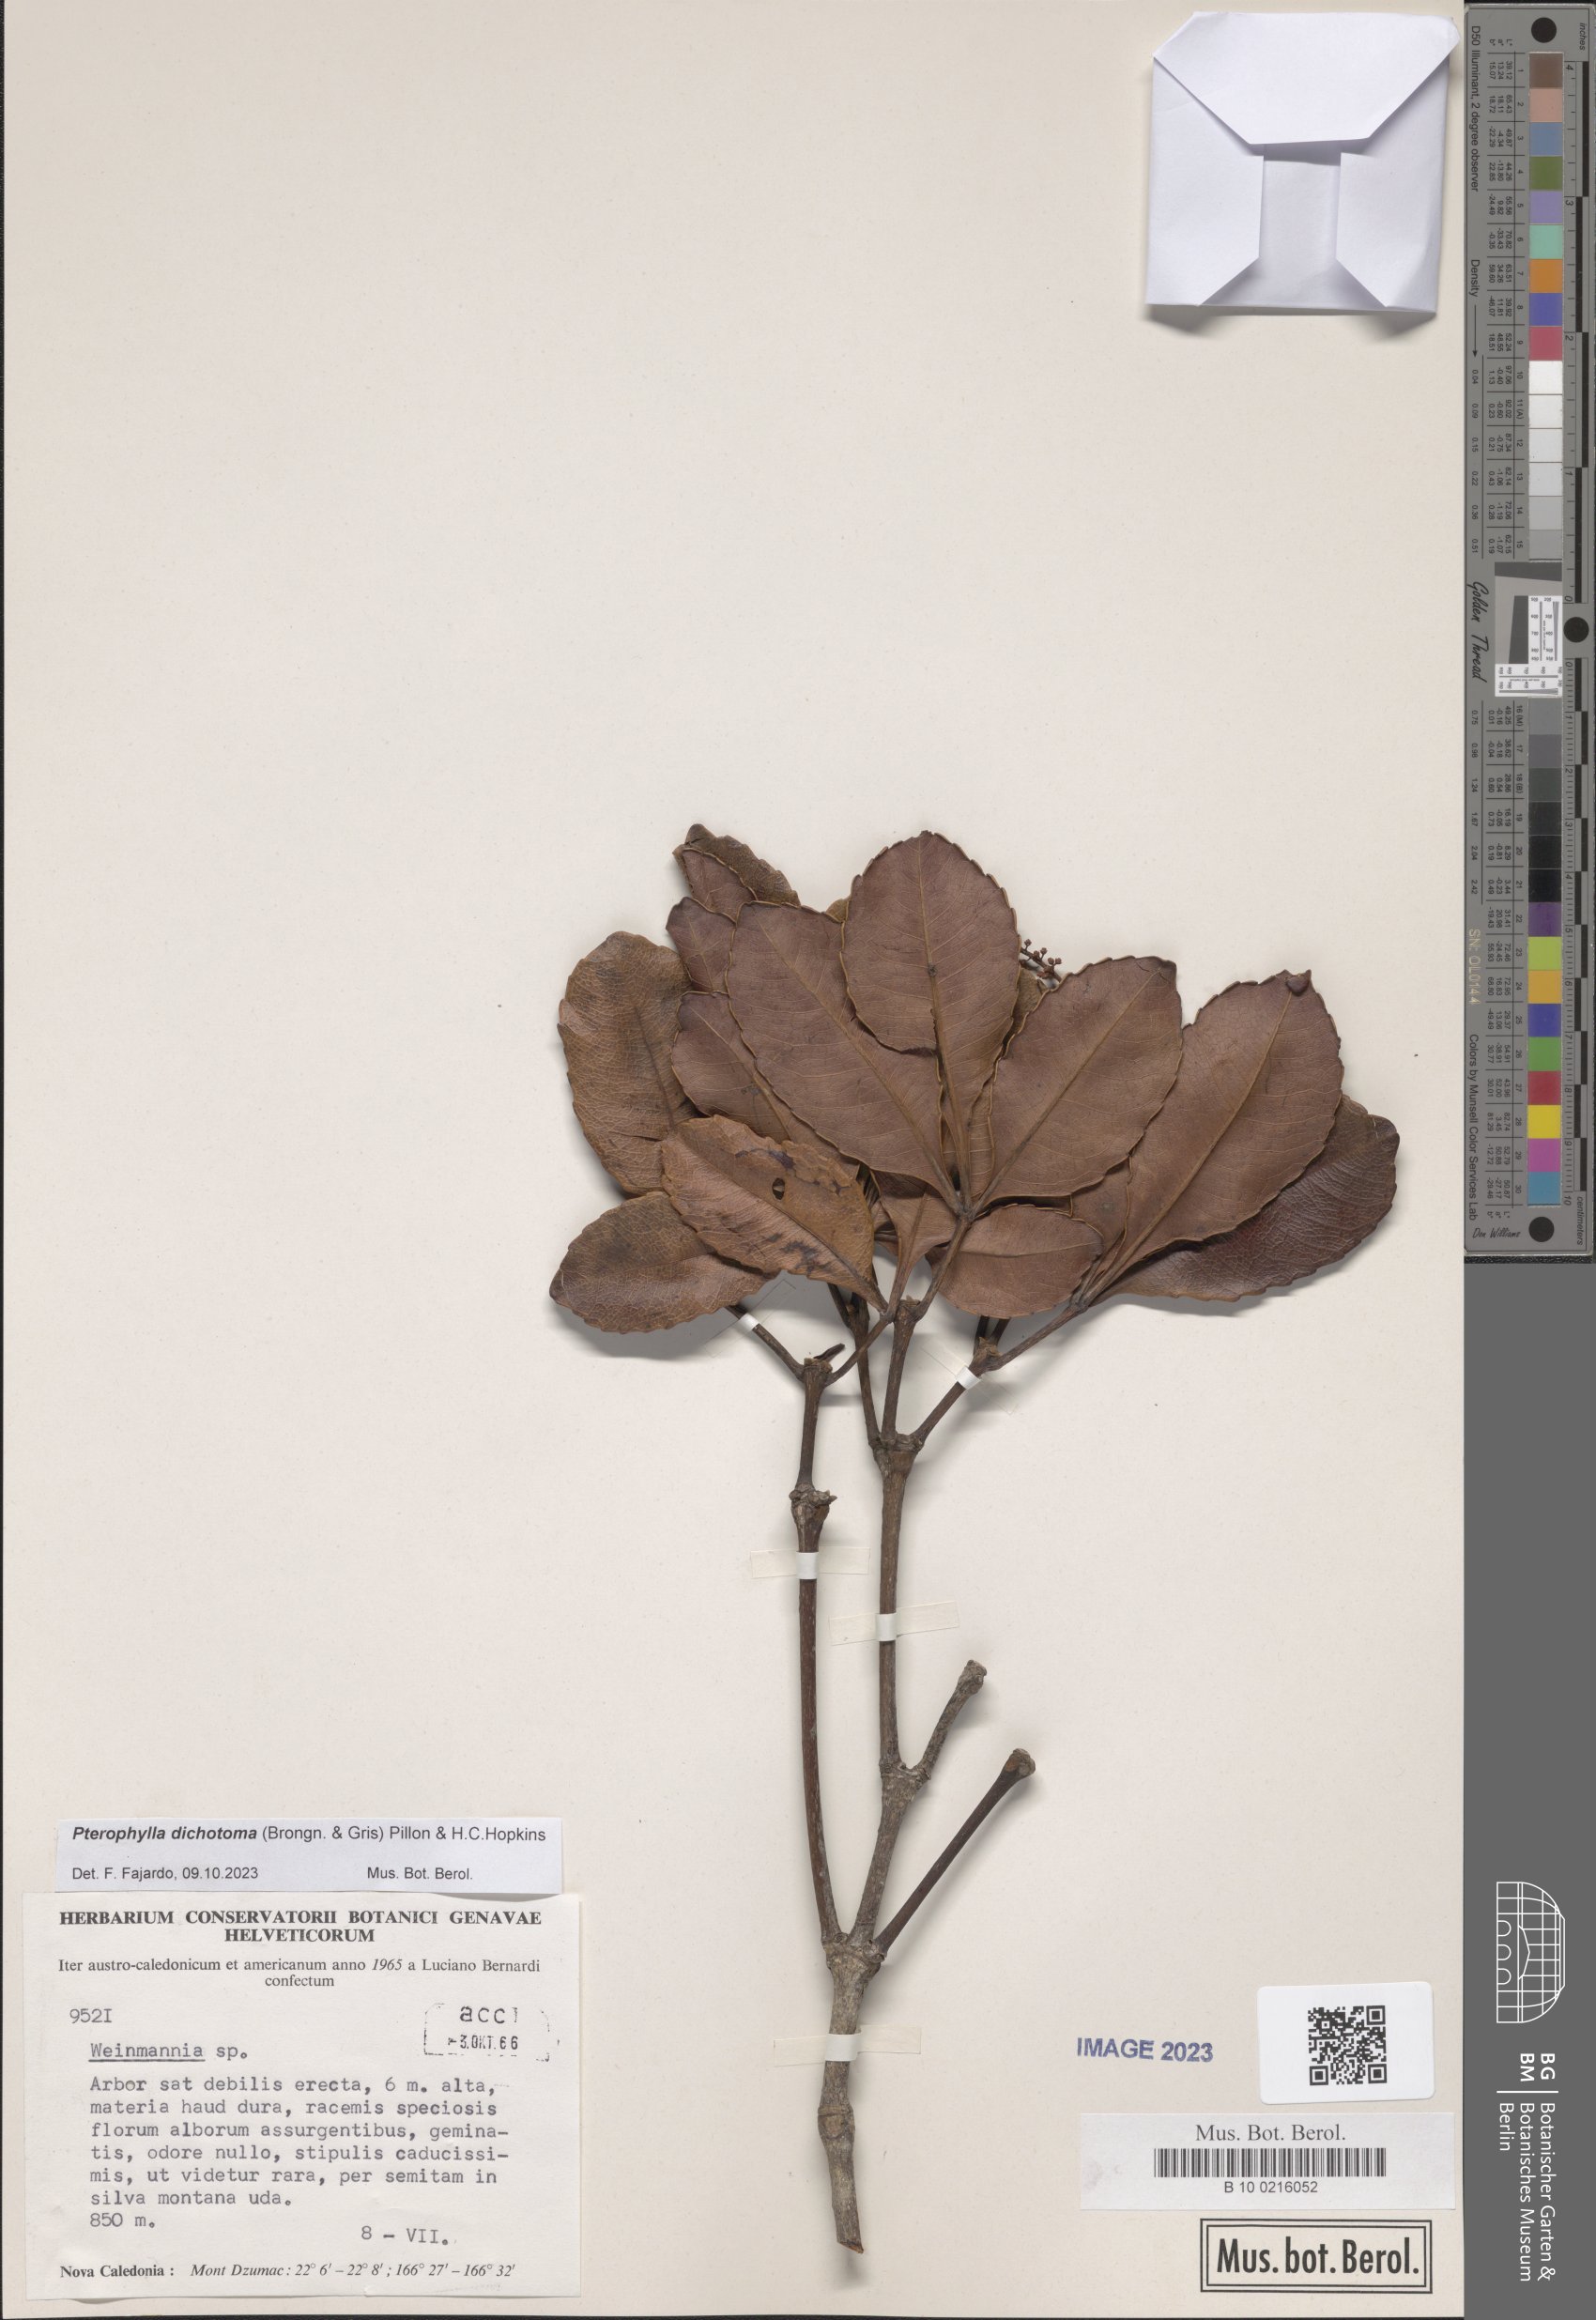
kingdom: Plantae
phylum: Tracheophyta
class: Magnoliopsida
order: Oxalidales
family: Cunoniaceae
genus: Pterophylla
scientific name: Pterophylla dichotoma
